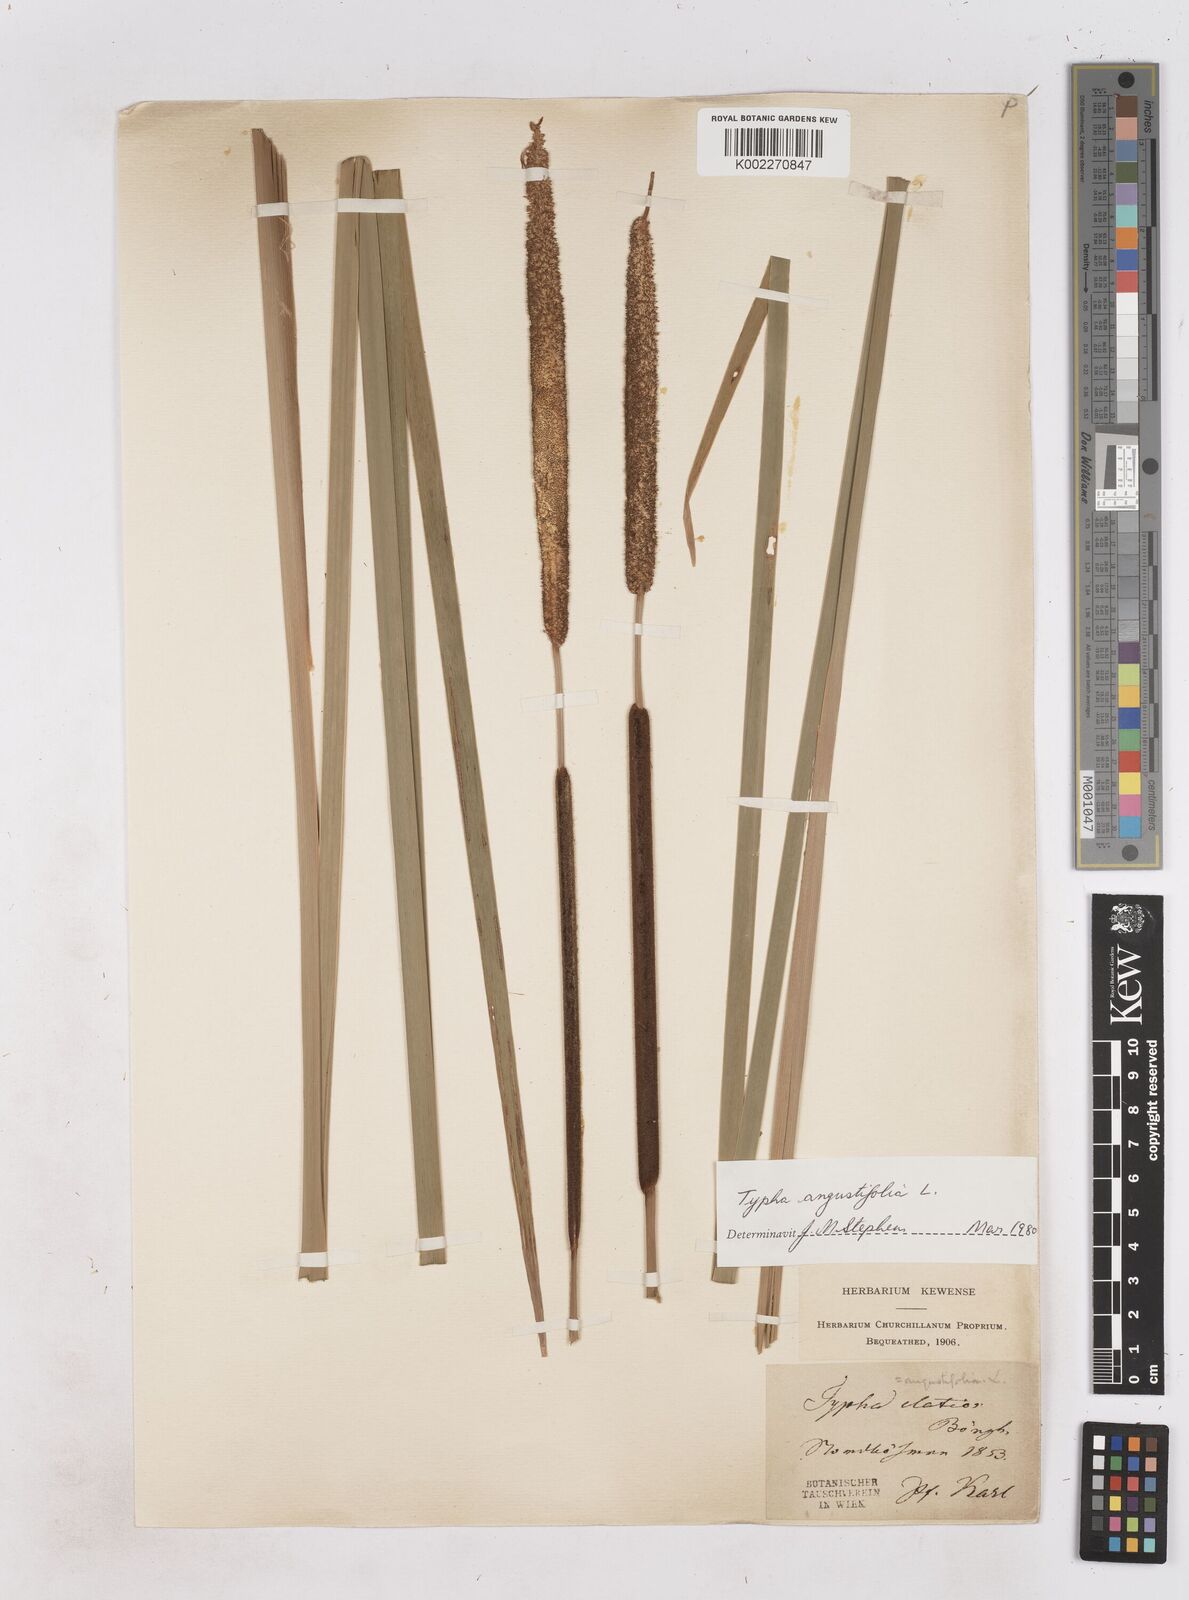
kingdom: Plantae
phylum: Tracheophyta
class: Liliopsida
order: Poales
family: Typhaceae
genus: Typha
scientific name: Typha angustifolia
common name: Lesser bulrush
